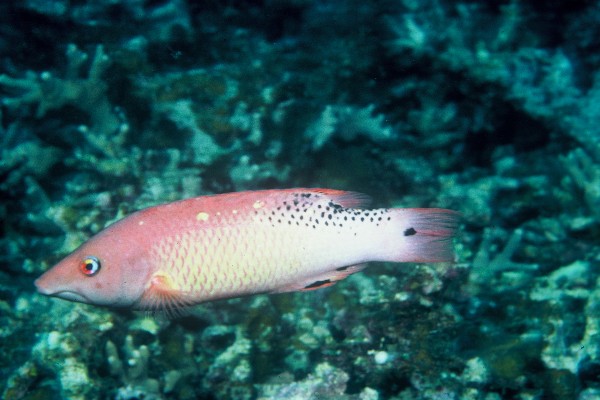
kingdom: Animalia
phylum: Chordata
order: Perciformes
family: Labridae
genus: Bodianus
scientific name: Bodianus diana
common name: Diana's hogfish
